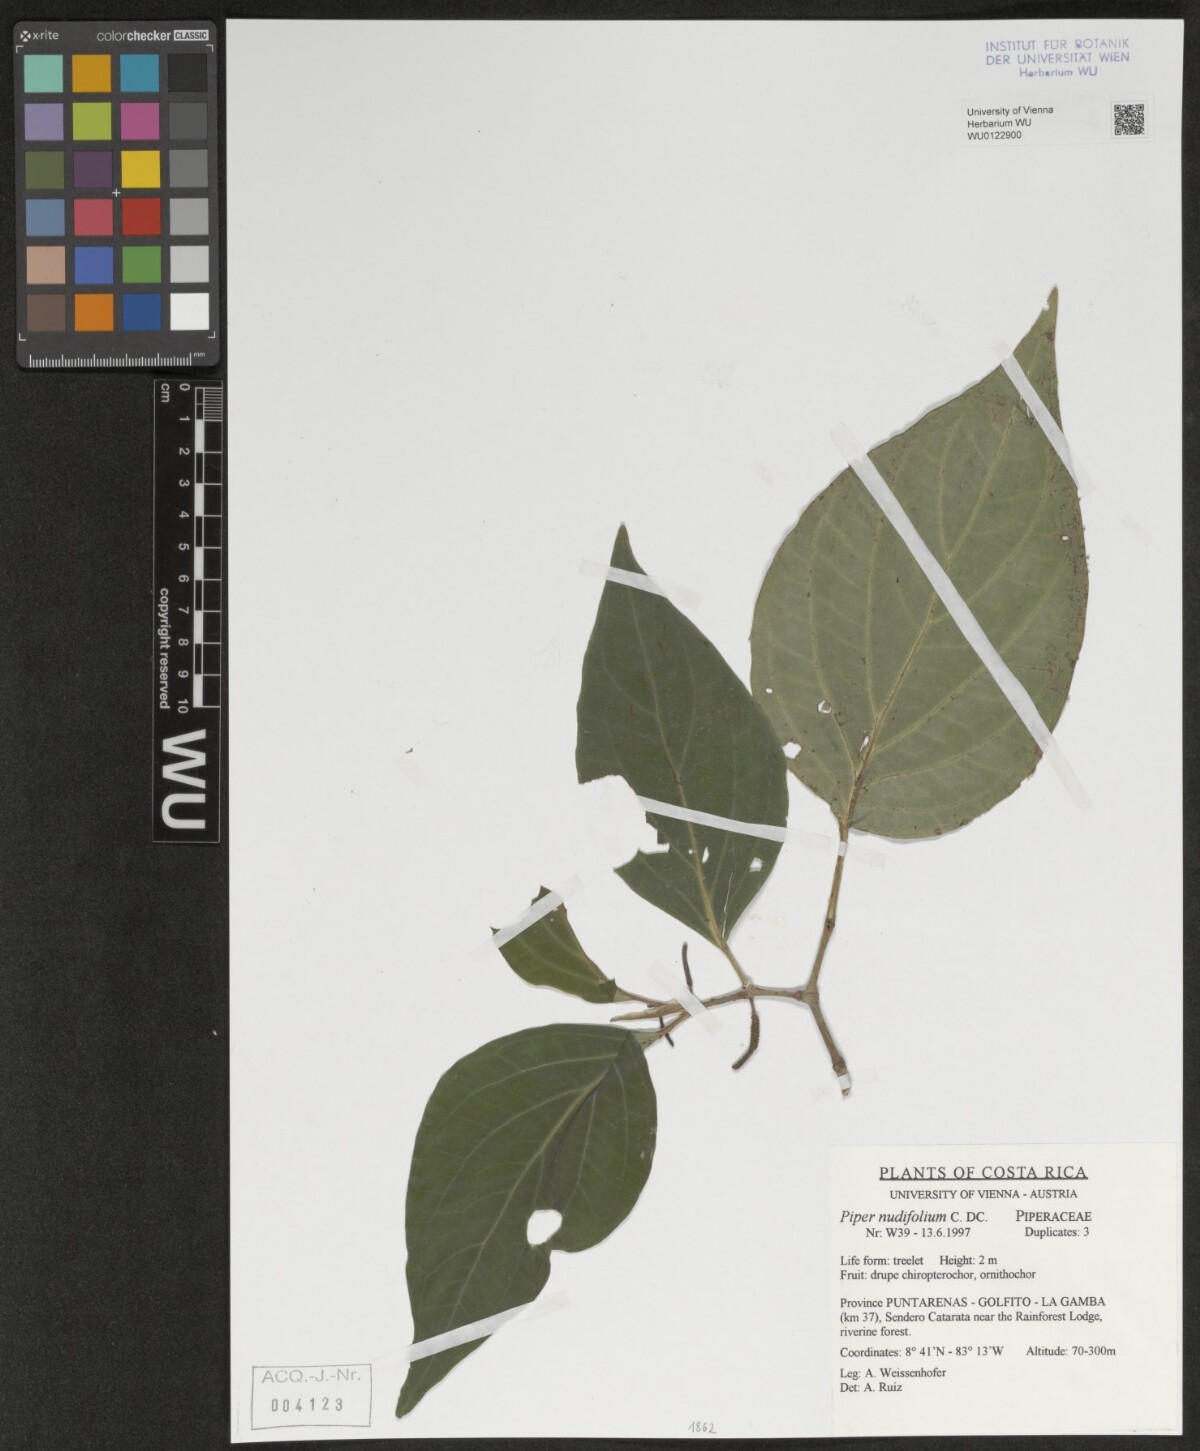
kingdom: Plantae
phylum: Tracheophyta
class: Magnoliopsida
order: Piperales
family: Piperaceae
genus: Piper
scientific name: Piper nudifolium
